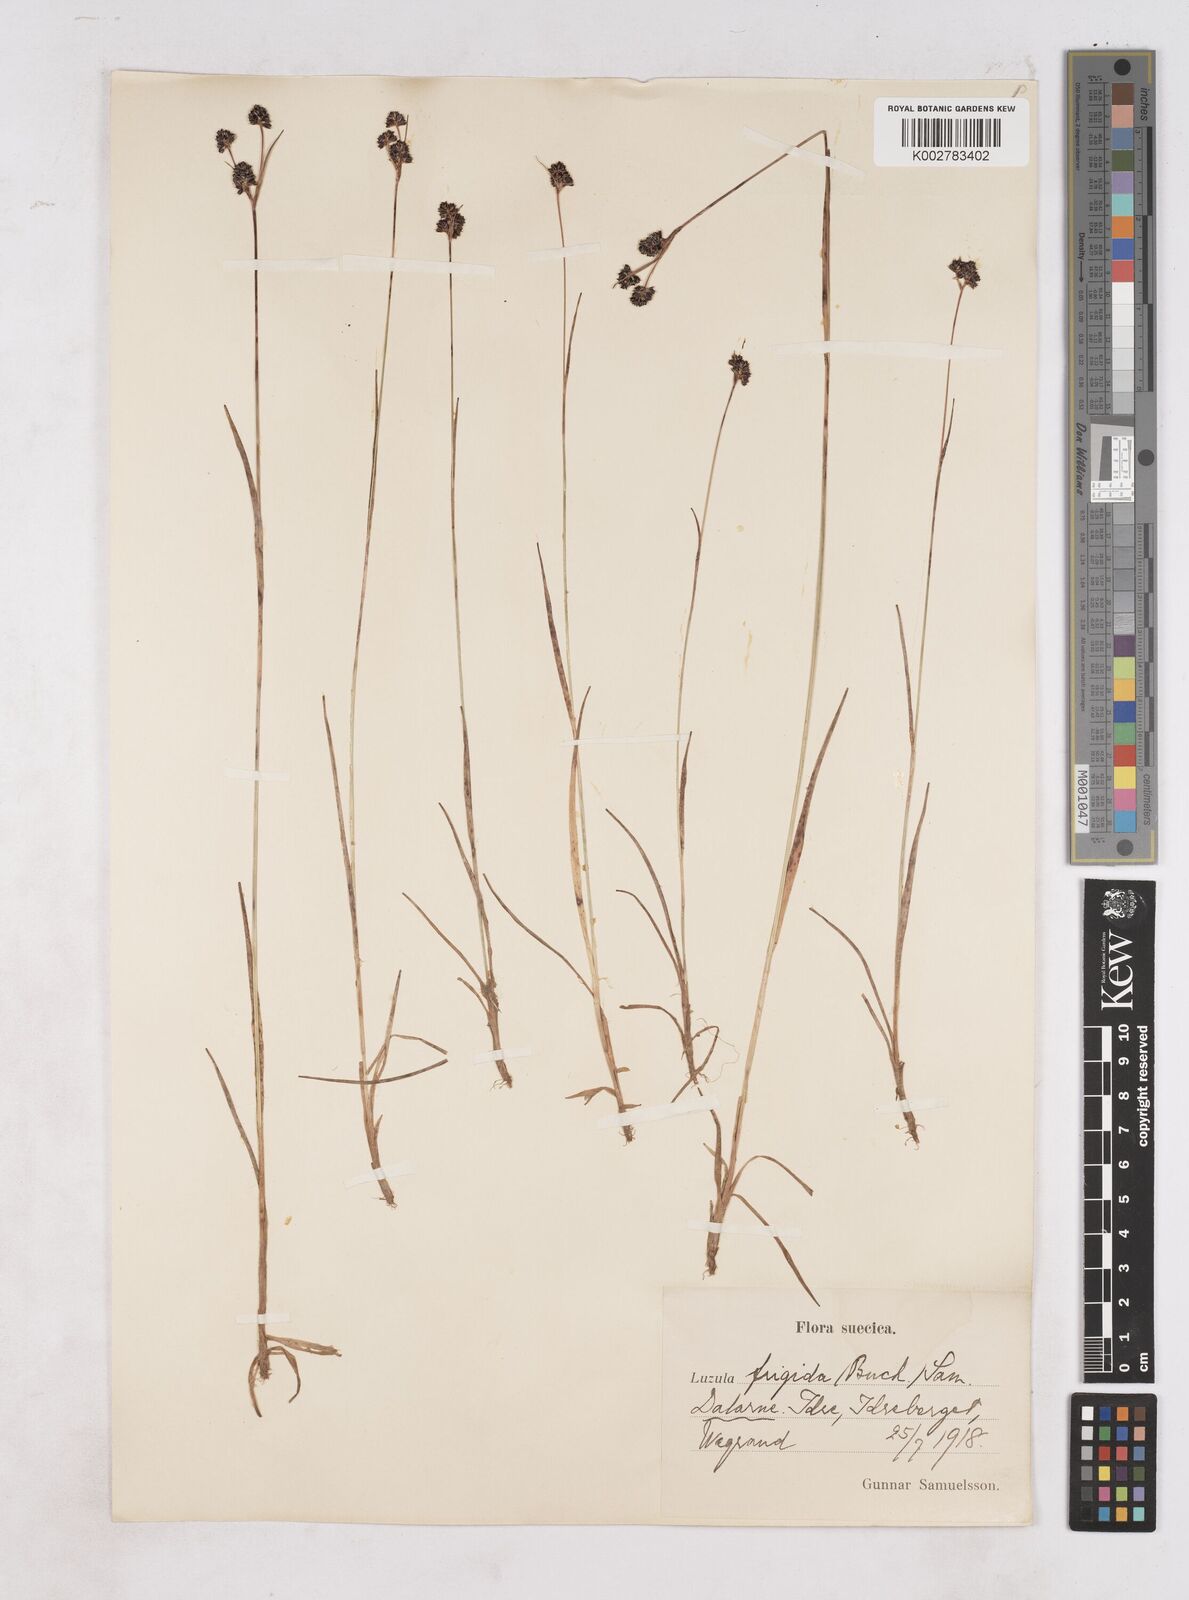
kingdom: Plantae
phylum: Tracheophyta
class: Liliopsida
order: Poales
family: Juncaceae
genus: Luzula
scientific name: Luzula multiflora
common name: Heath wood-rush
